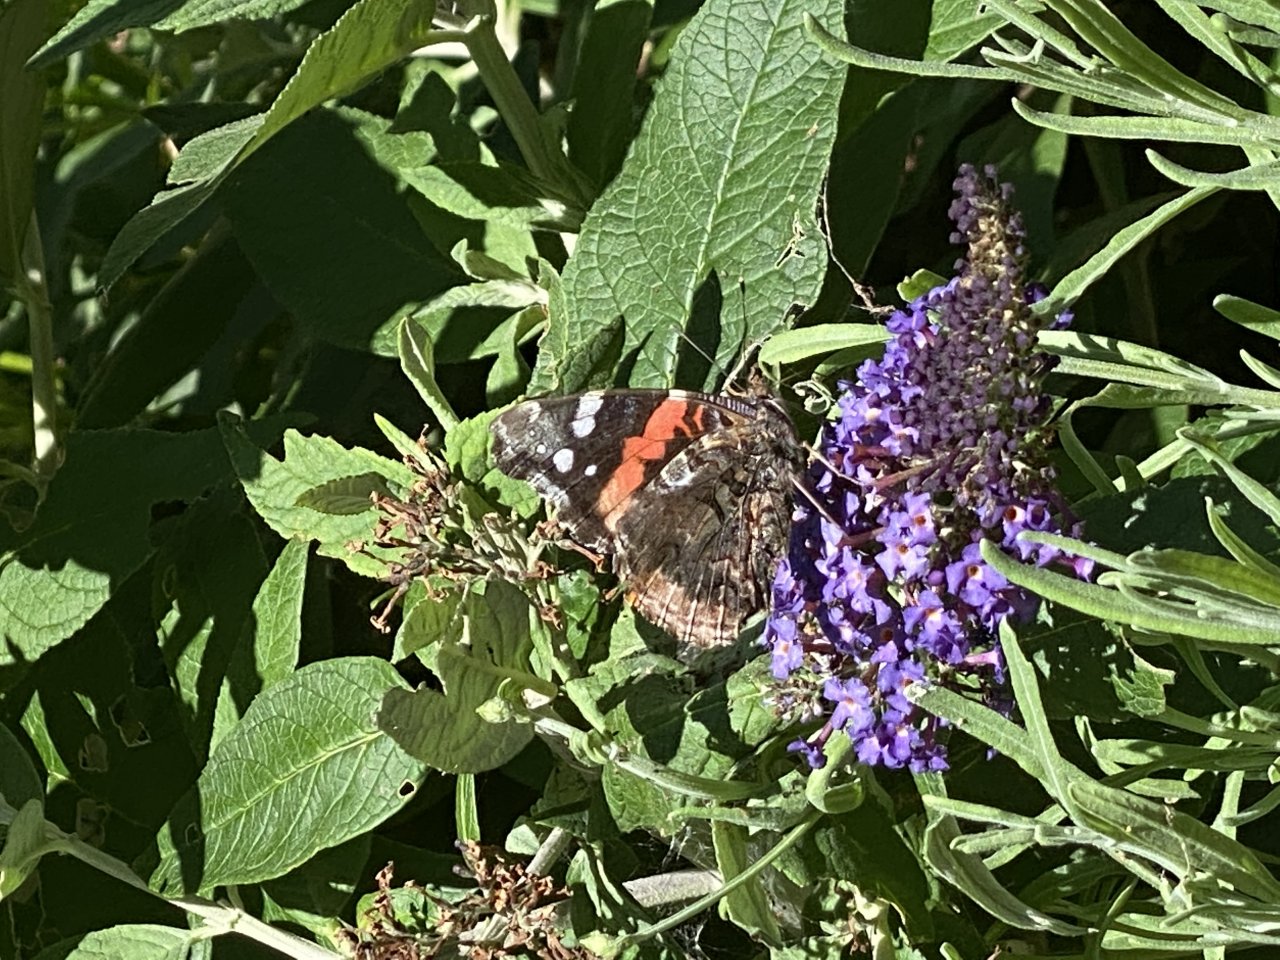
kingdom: Animalia
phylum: Arthropoda
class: Insecta
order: Lepidoptera
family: Nymphalidae
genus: Vanessa
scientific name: Vanessa atalanta
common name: Red Admiral
